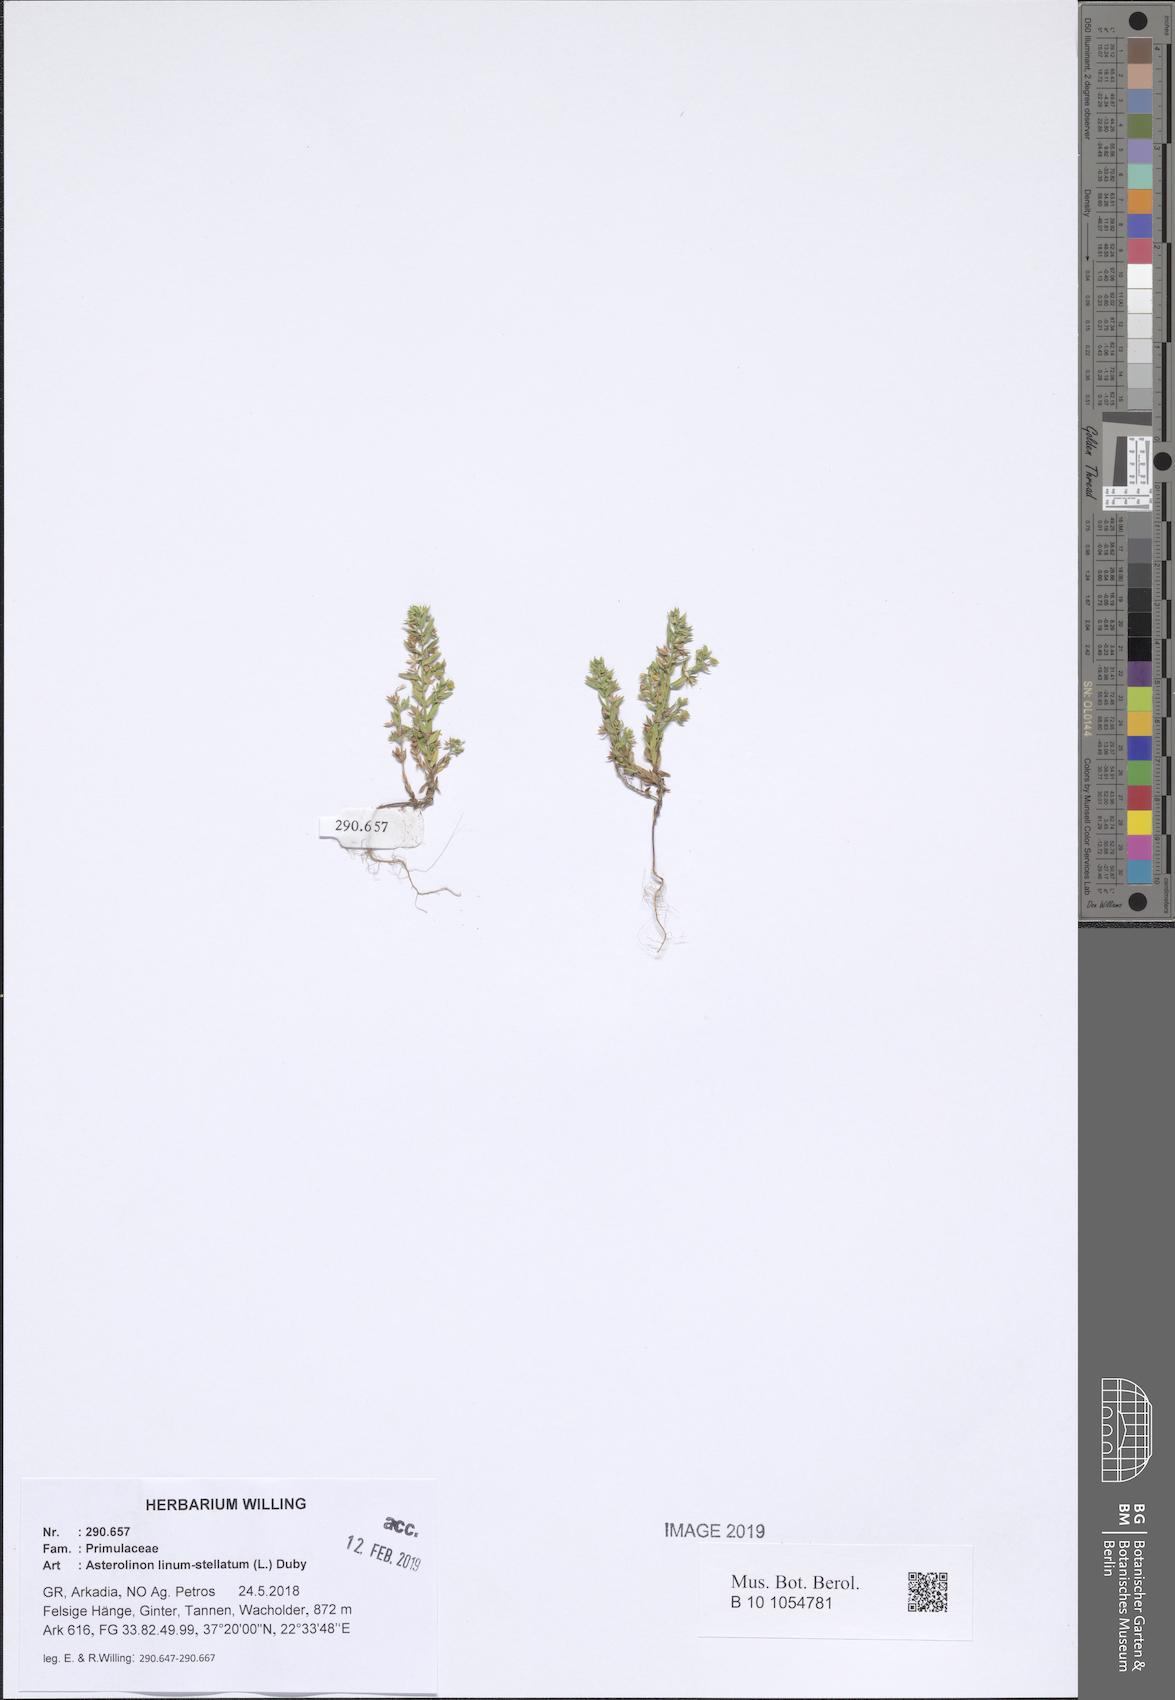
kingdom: Plantae
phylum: Tracheophyta
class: Magnoliopsida
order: Ericales
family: Primulaceae
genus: Lysimachia
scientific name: Lysimachia linum-stellatum
